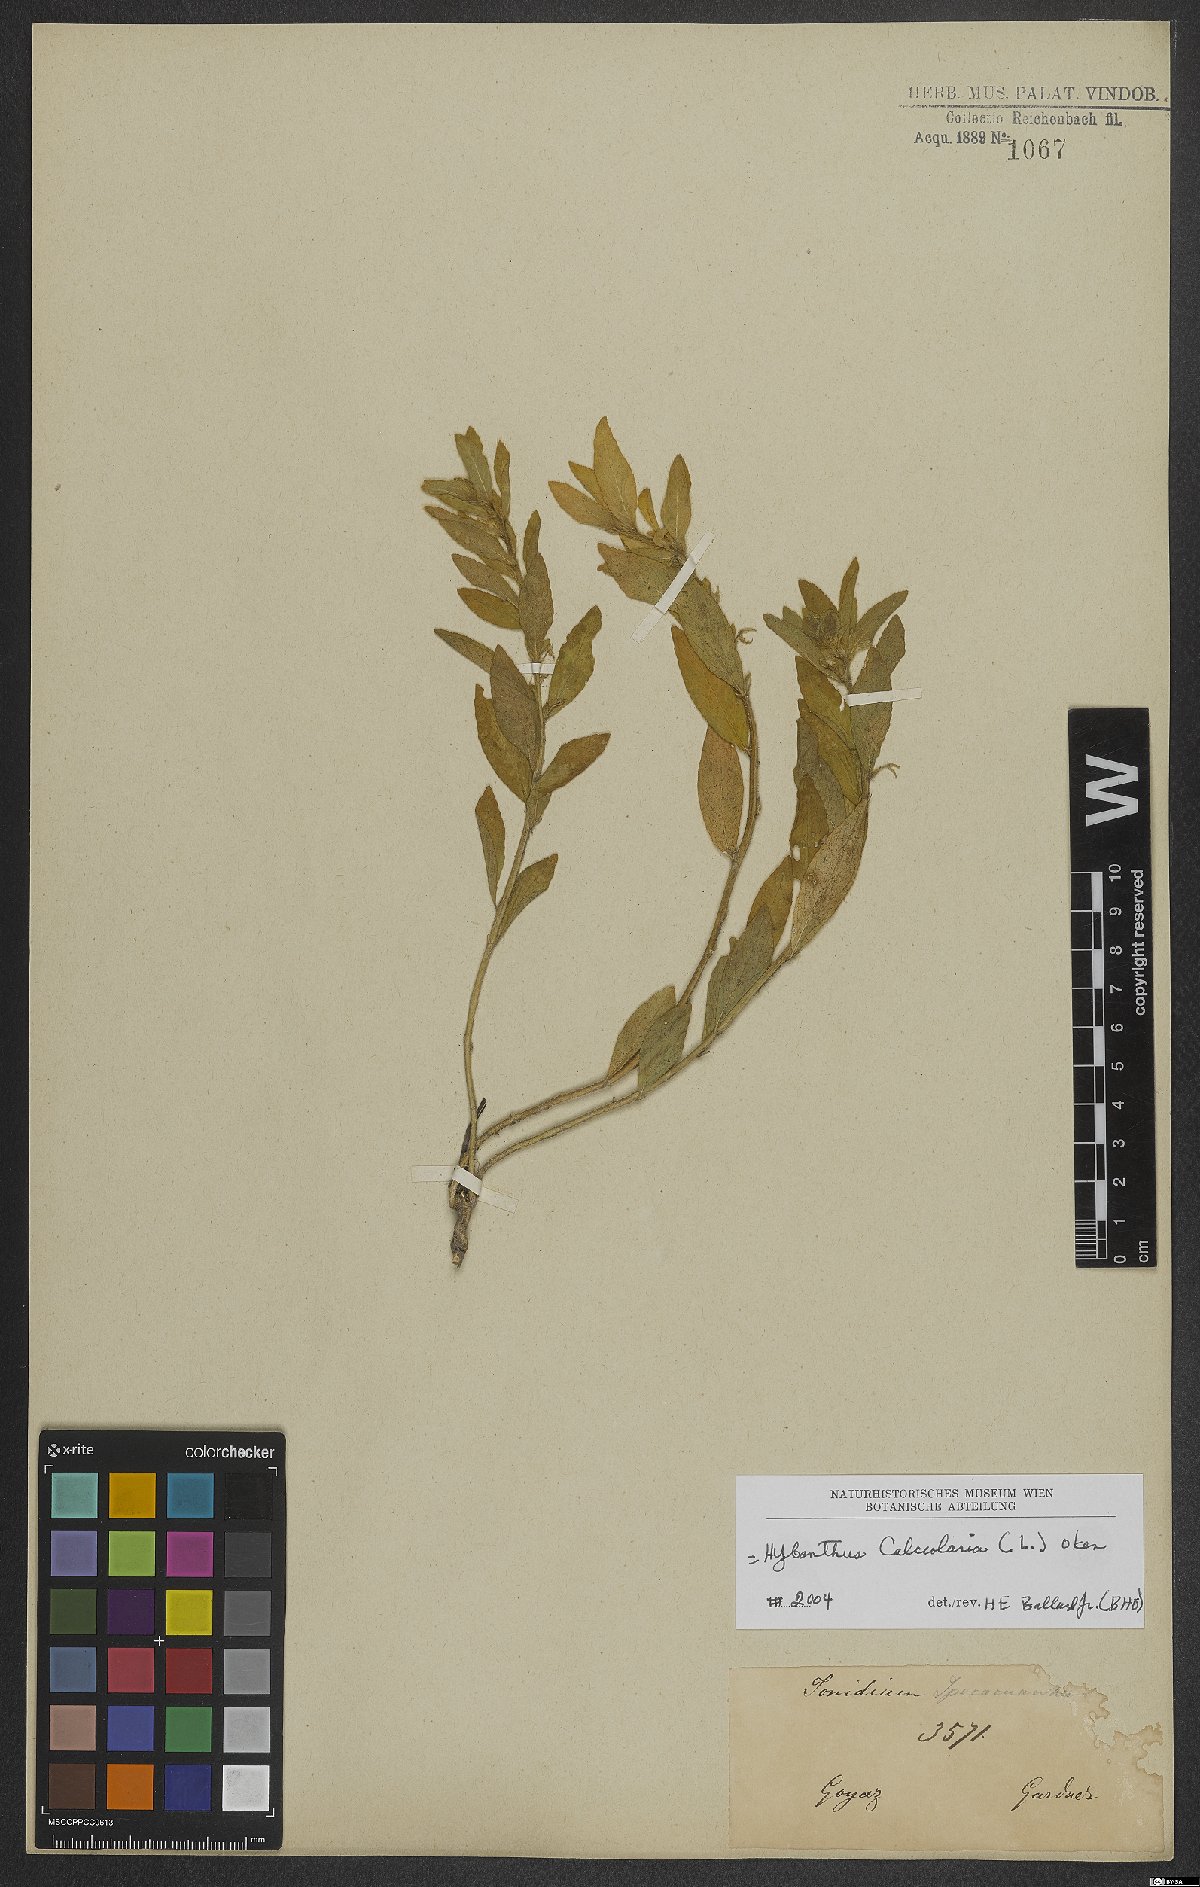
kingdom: Plantae
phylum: Tracheophyta
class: Magnoliopsida
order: Malpighiales
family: Violaceae
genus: Pombalia
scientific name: Pombalia calceolaria
